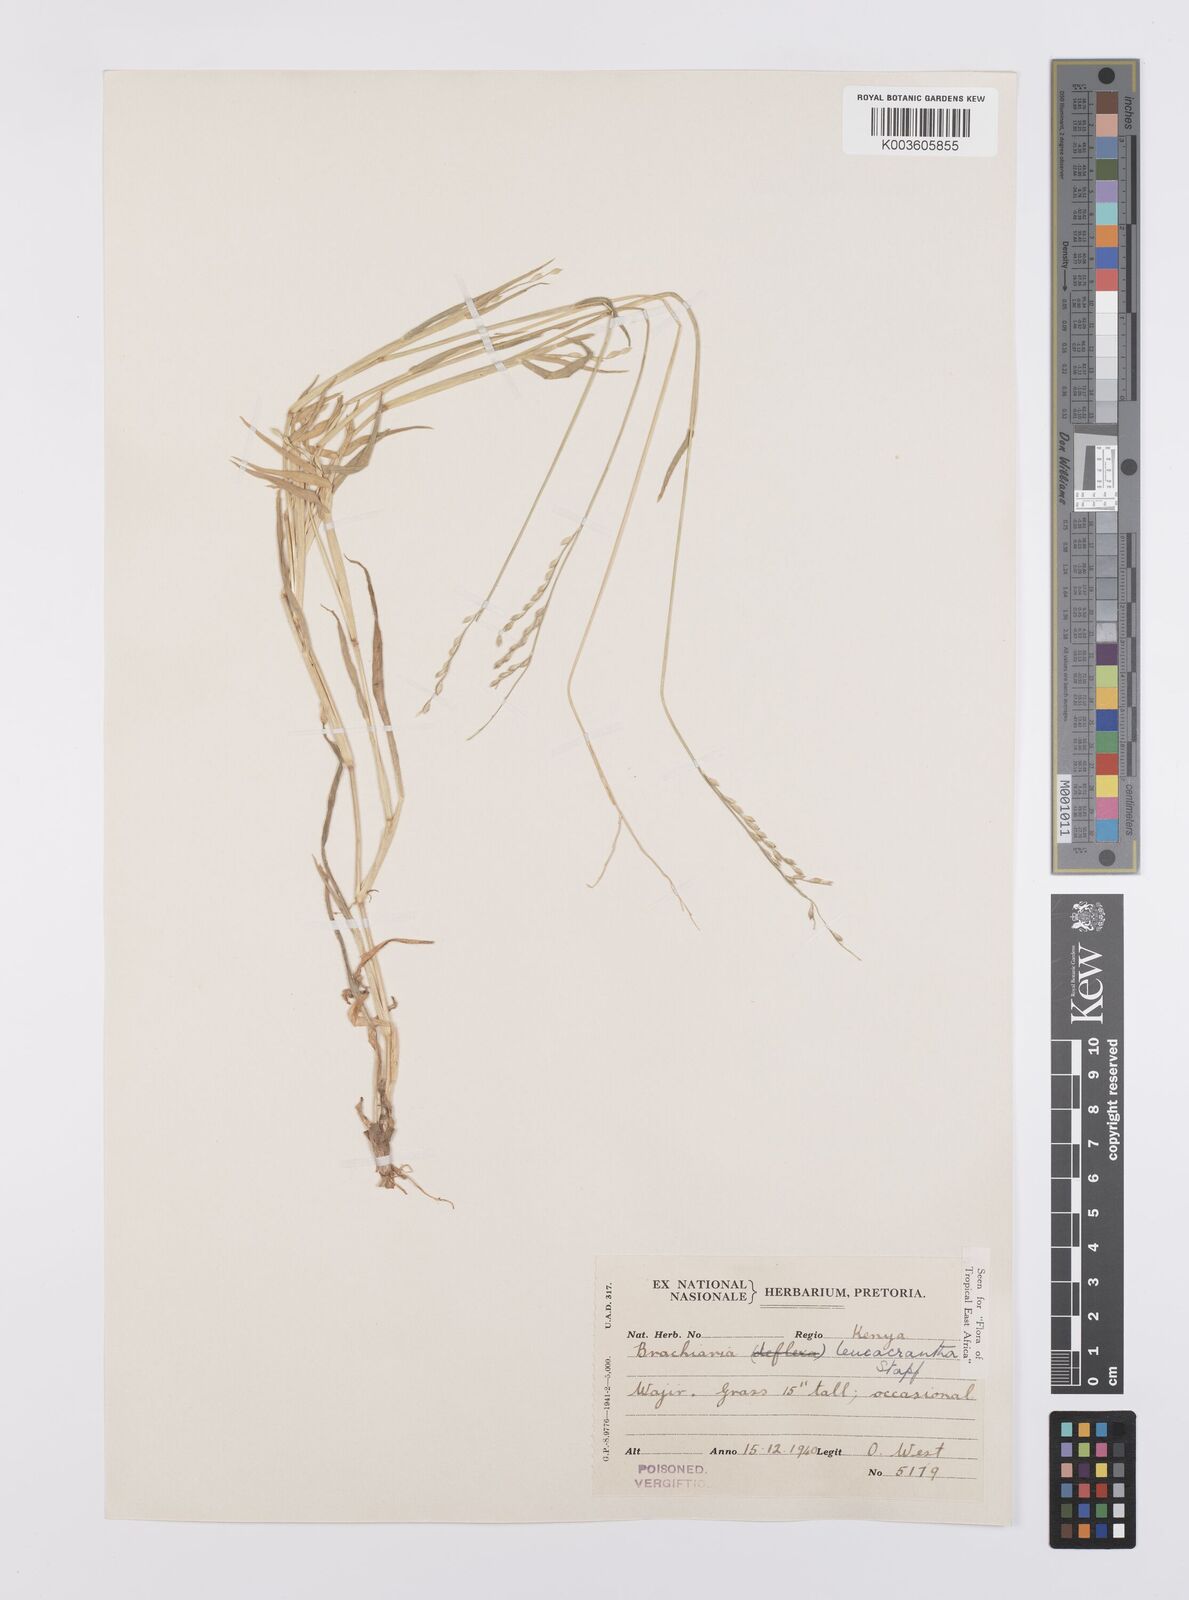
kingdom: Plantae
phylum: Tracheophyta
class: Liliopsida
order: Poales
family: Poaceae
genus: Urochloa
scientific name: Urochloa xantholeuca
